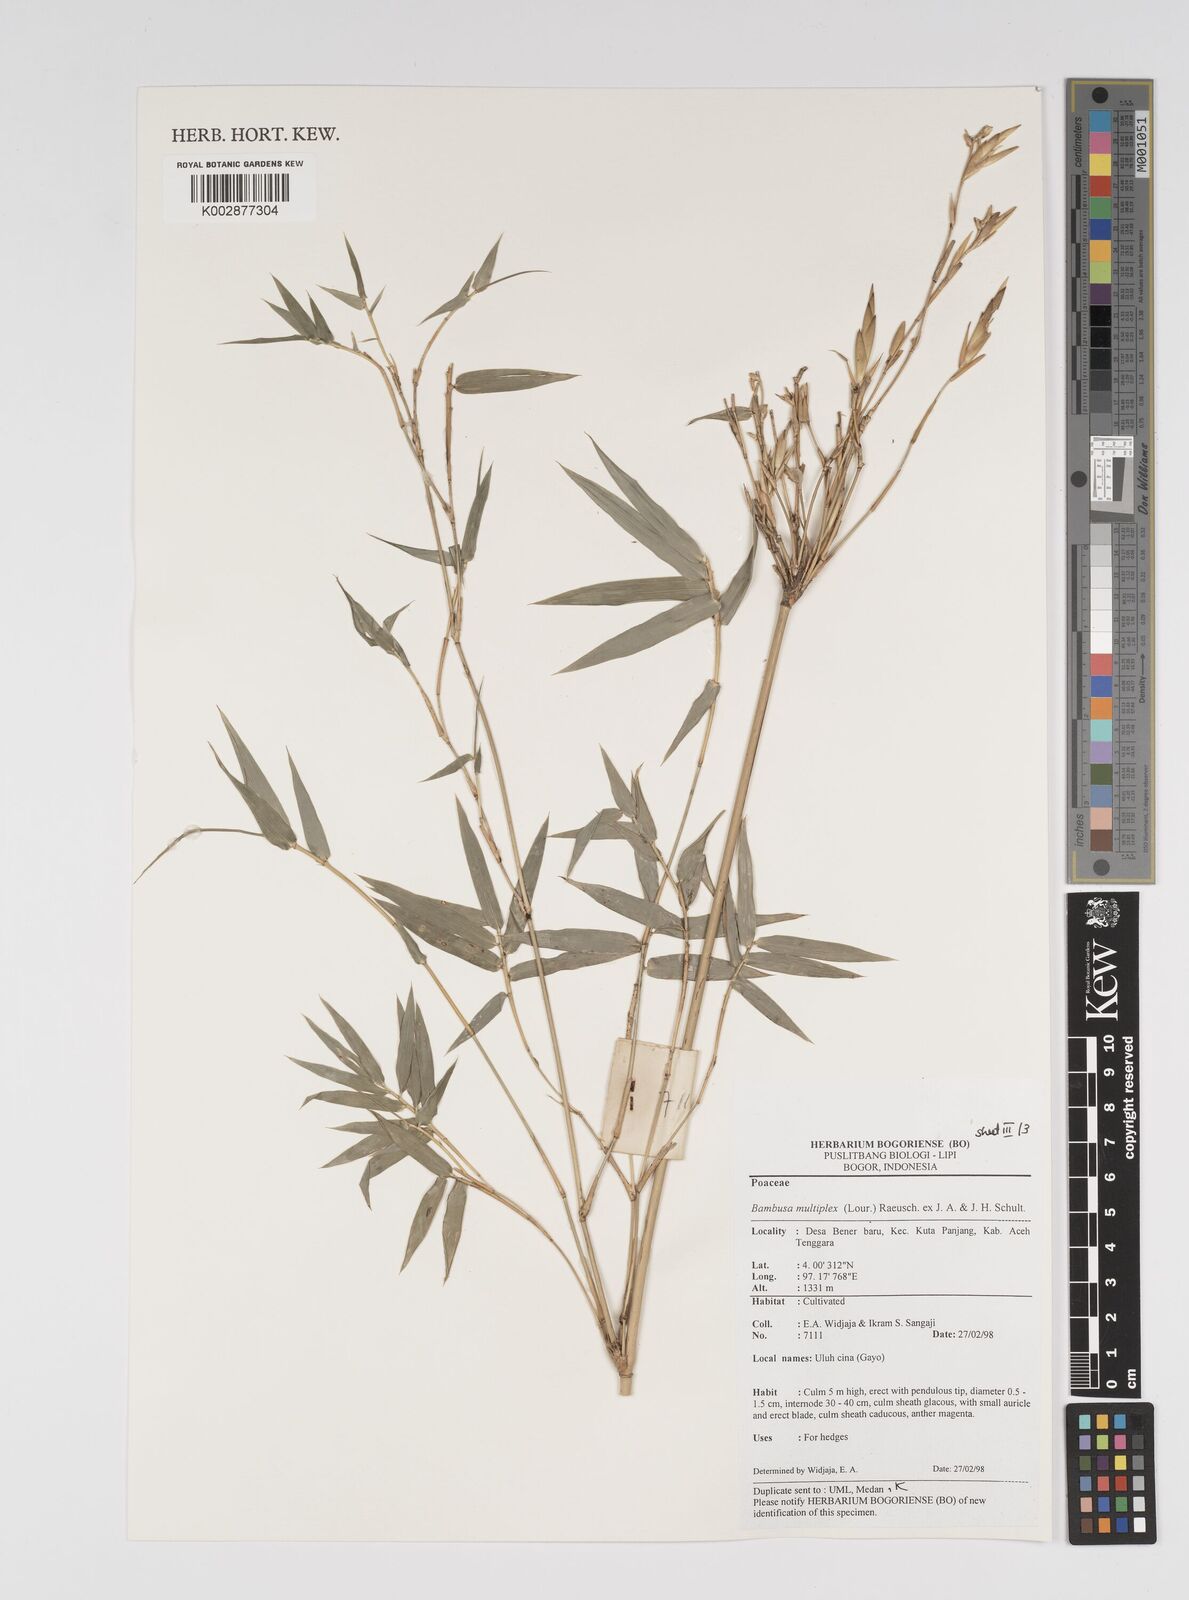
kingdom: Plantae
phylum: Tracheophyta
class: Liliopsida
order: Poales
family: Poaceae
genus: Bambusa
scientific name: Bambusa multiplex
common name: Hedge bamboo
